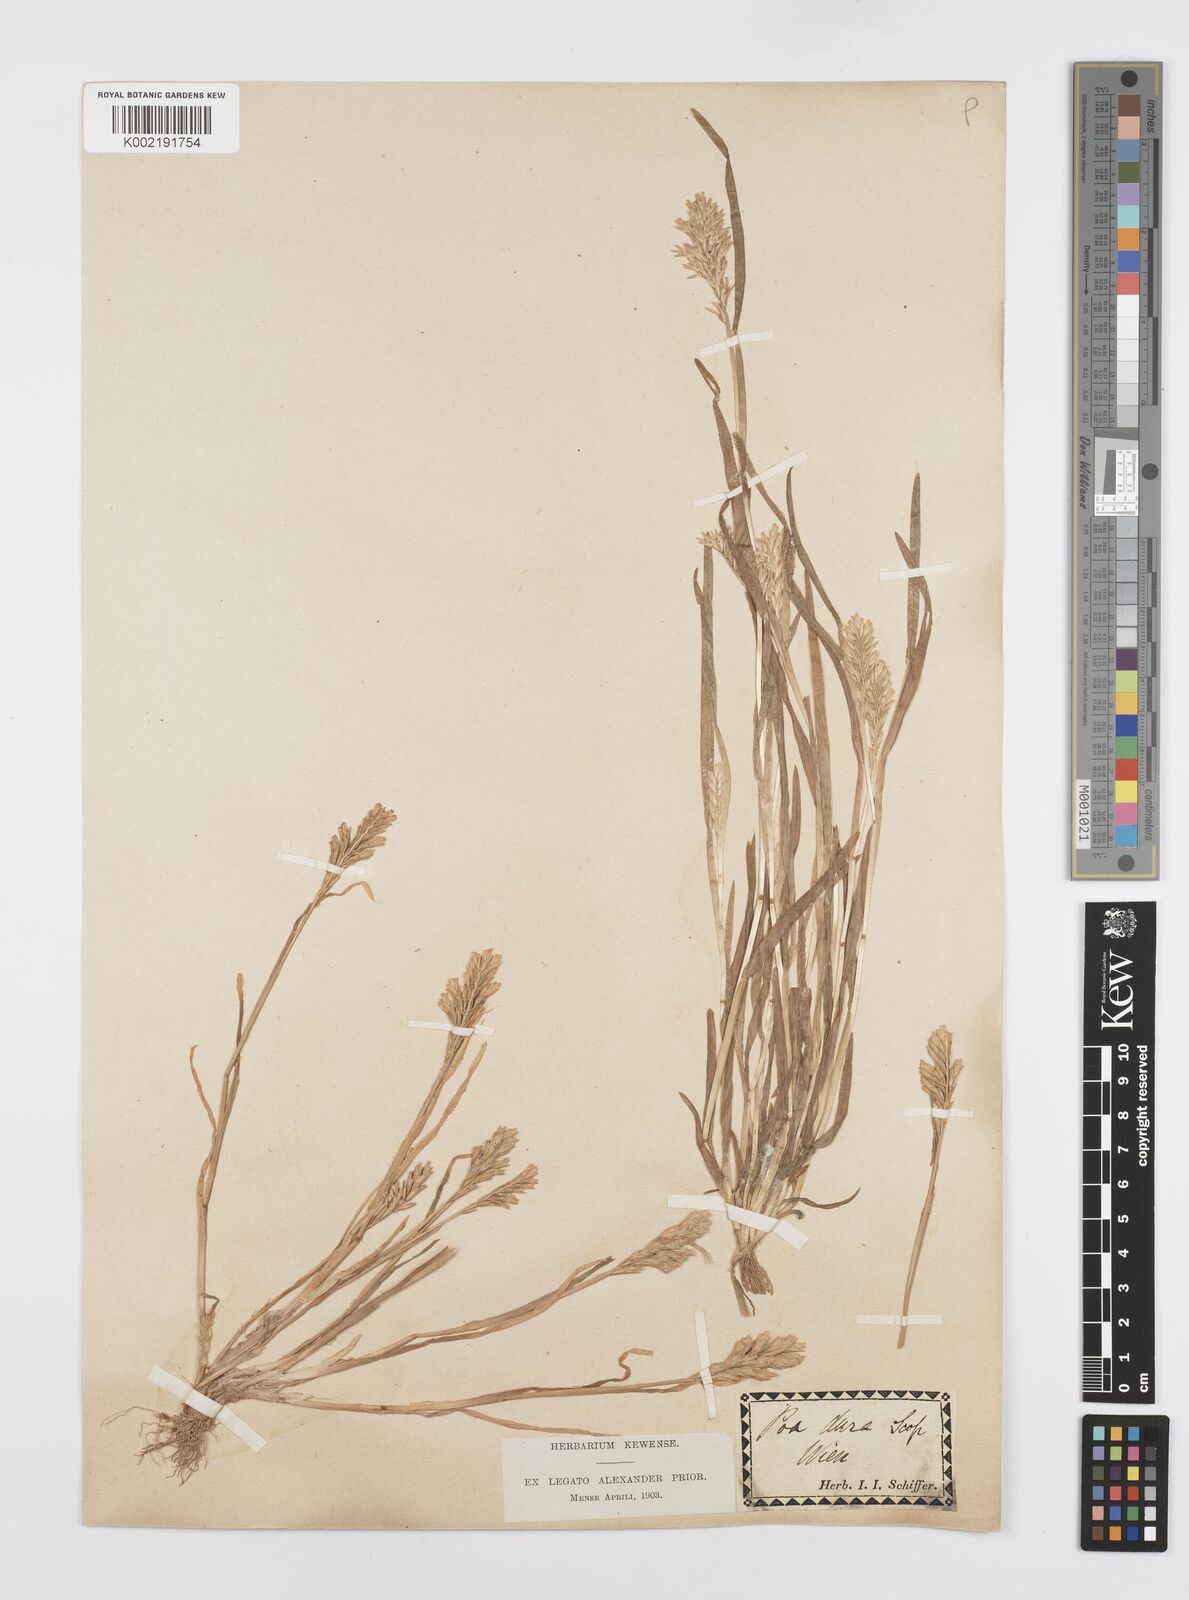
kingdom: Plantae
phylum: Tracheophyta
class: Liliopsida
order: Poales
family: Poaceae
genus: Sclerochloa
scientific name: Sclerochloa dura
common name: Common hardgrass
